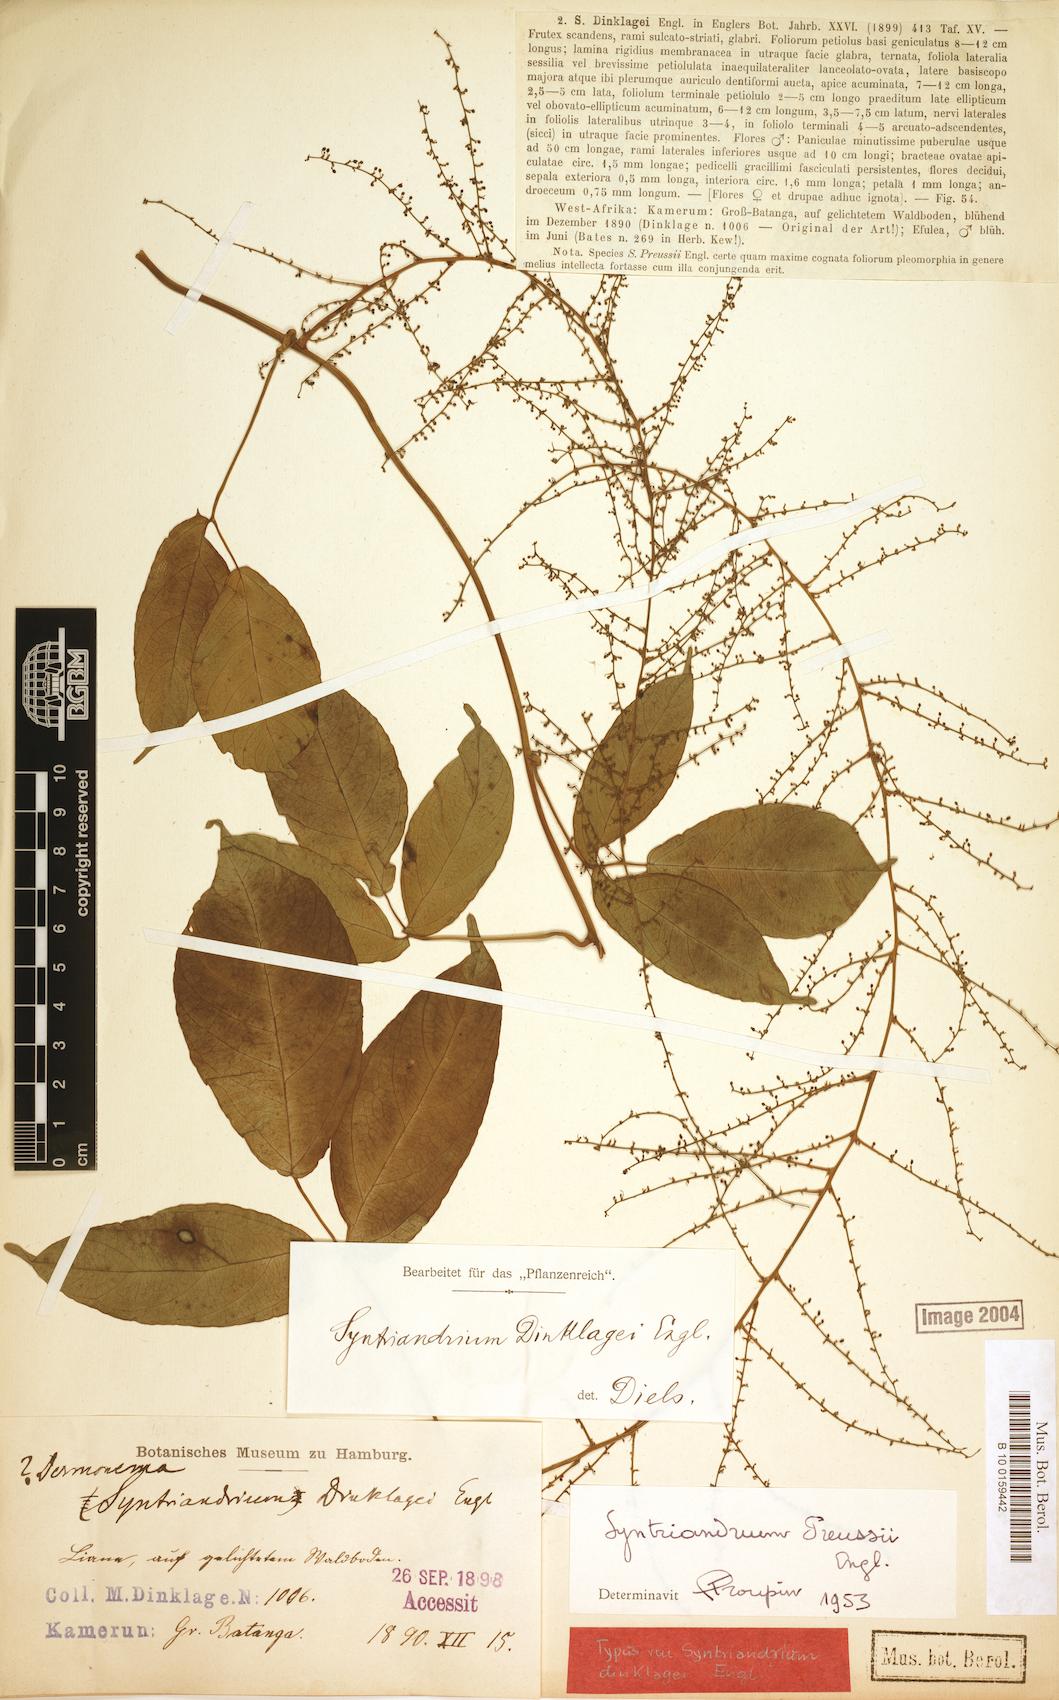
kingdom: Plantae
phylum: Tracheophyta
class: Magnoliopsida
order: Ranunculales
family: Menispermaceae
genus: Syntriandrium
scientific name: Syntriandrium preussii
